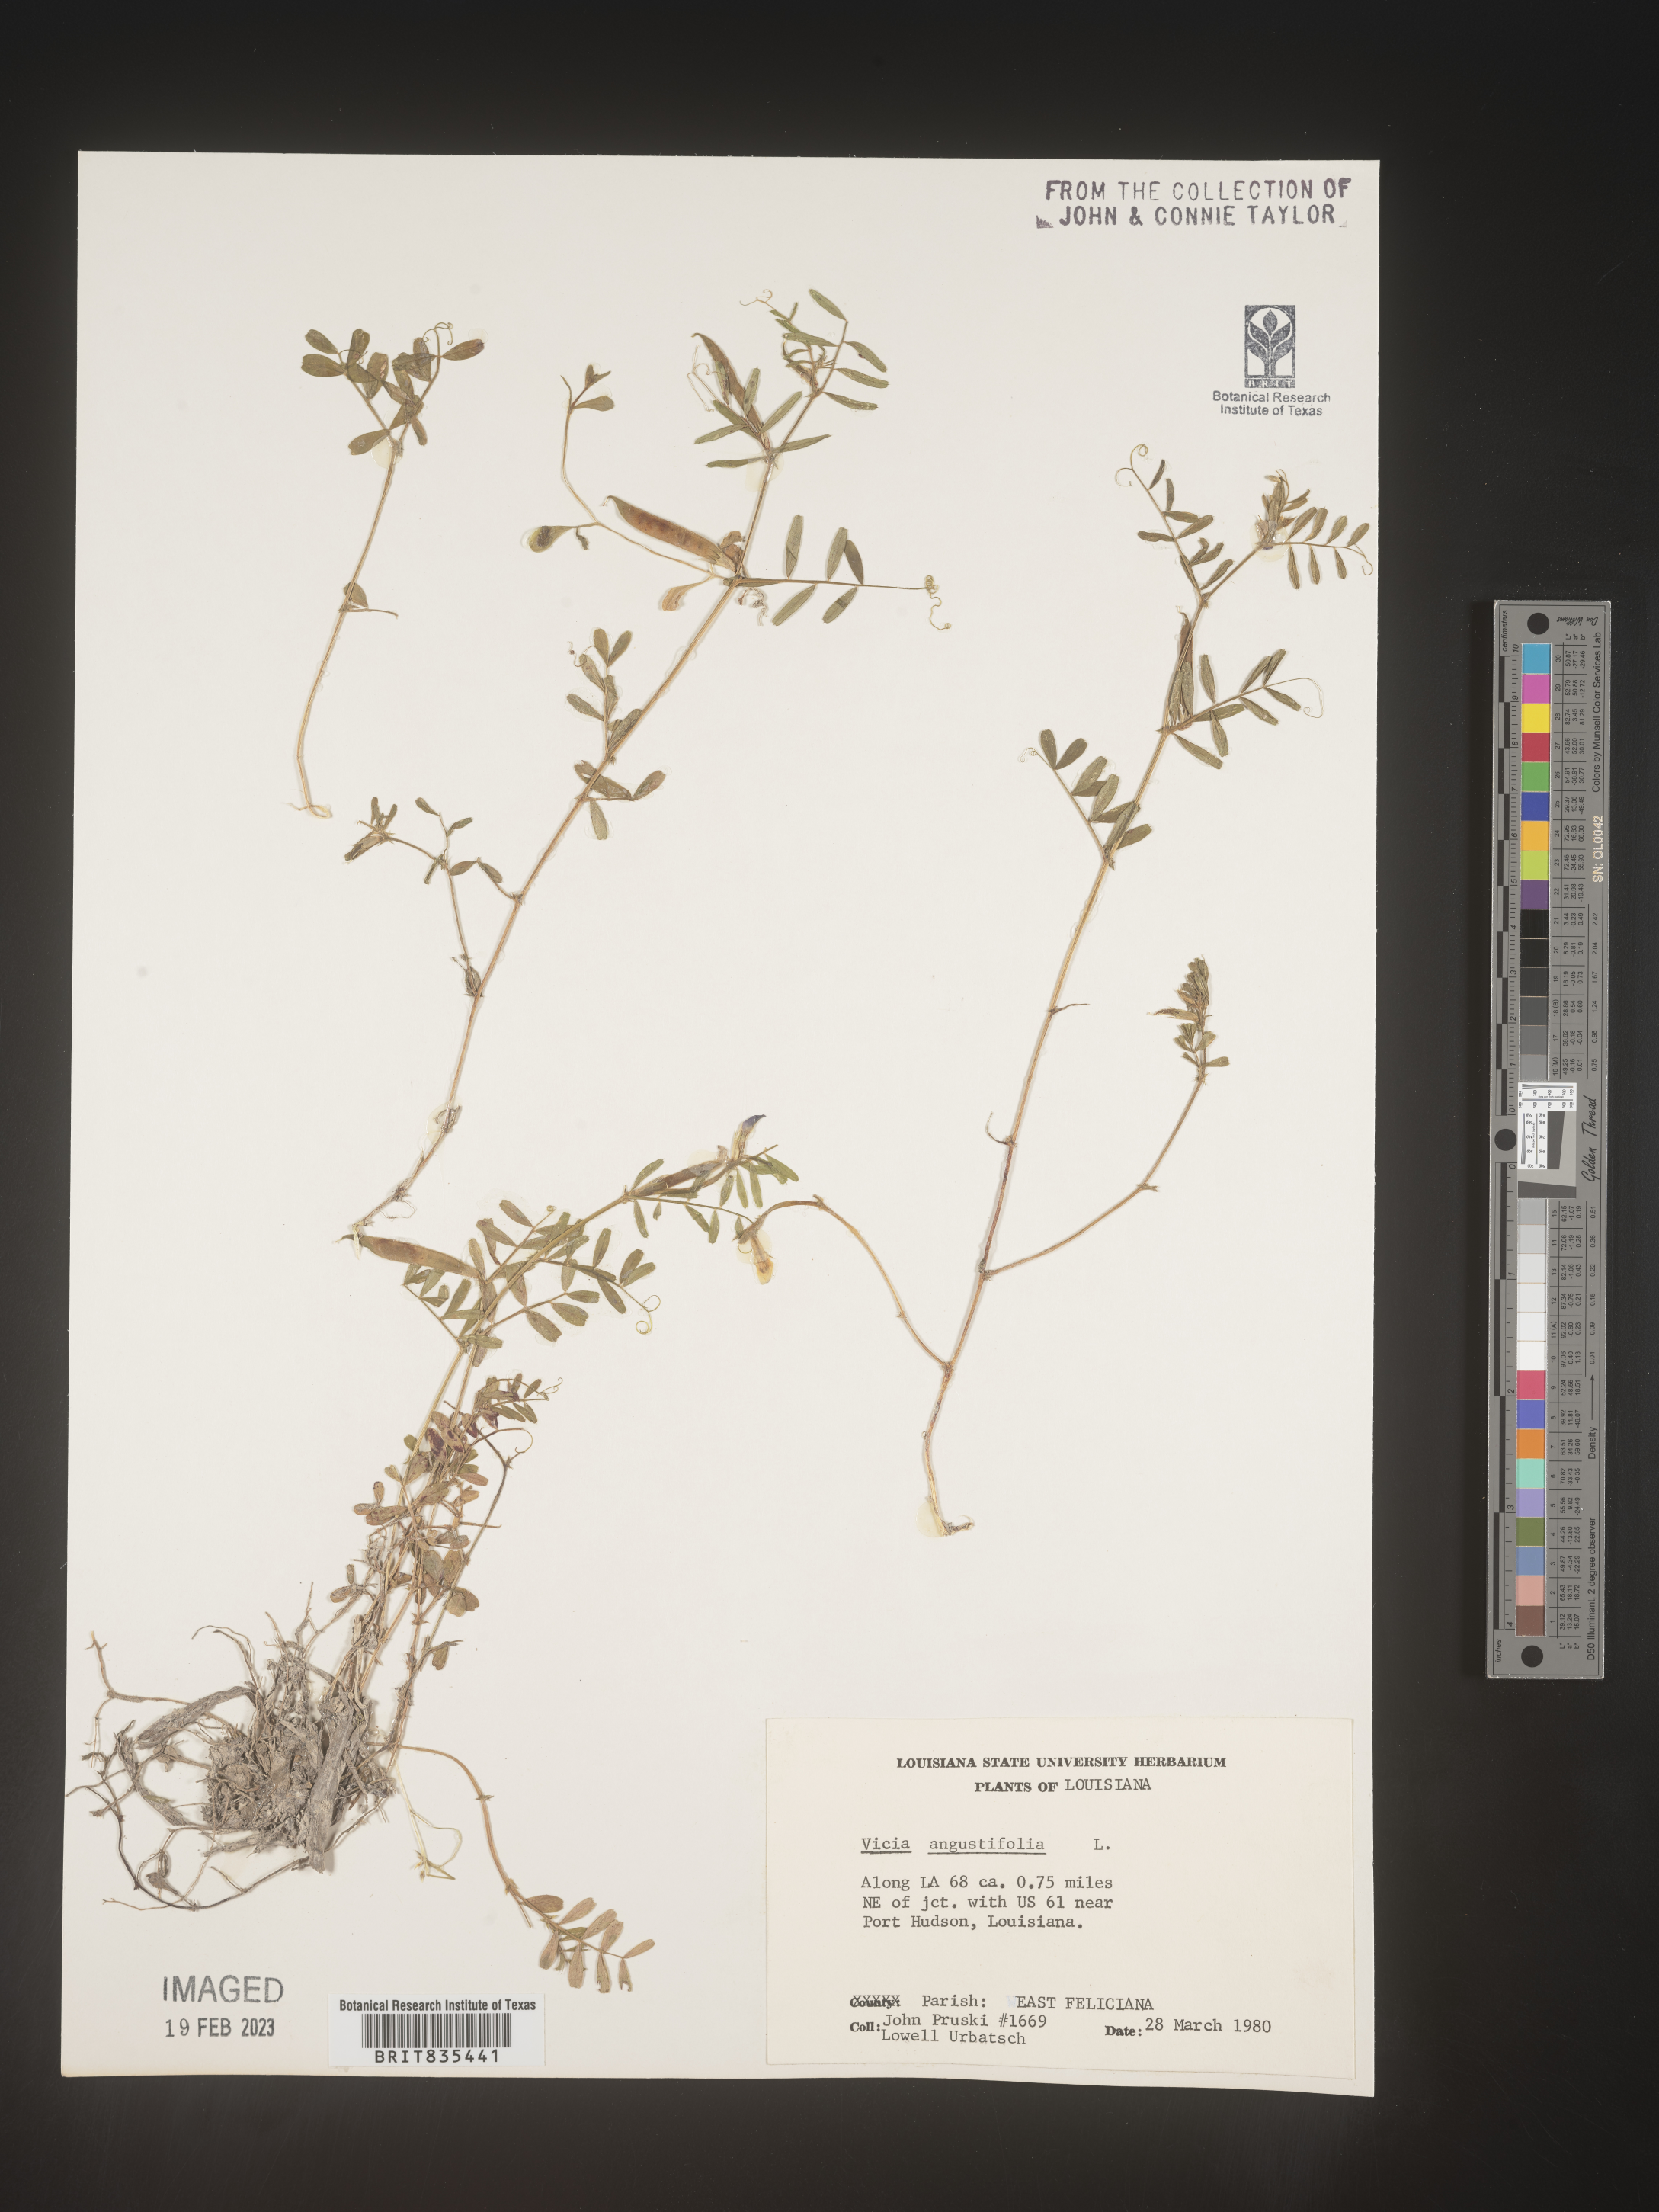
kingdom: Plantae
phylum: Tracheophyta
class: Magnoliopsida
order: Fabales
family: Fabaceae
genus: Vicia
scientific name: Vicia sativa
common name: Garden vetch
